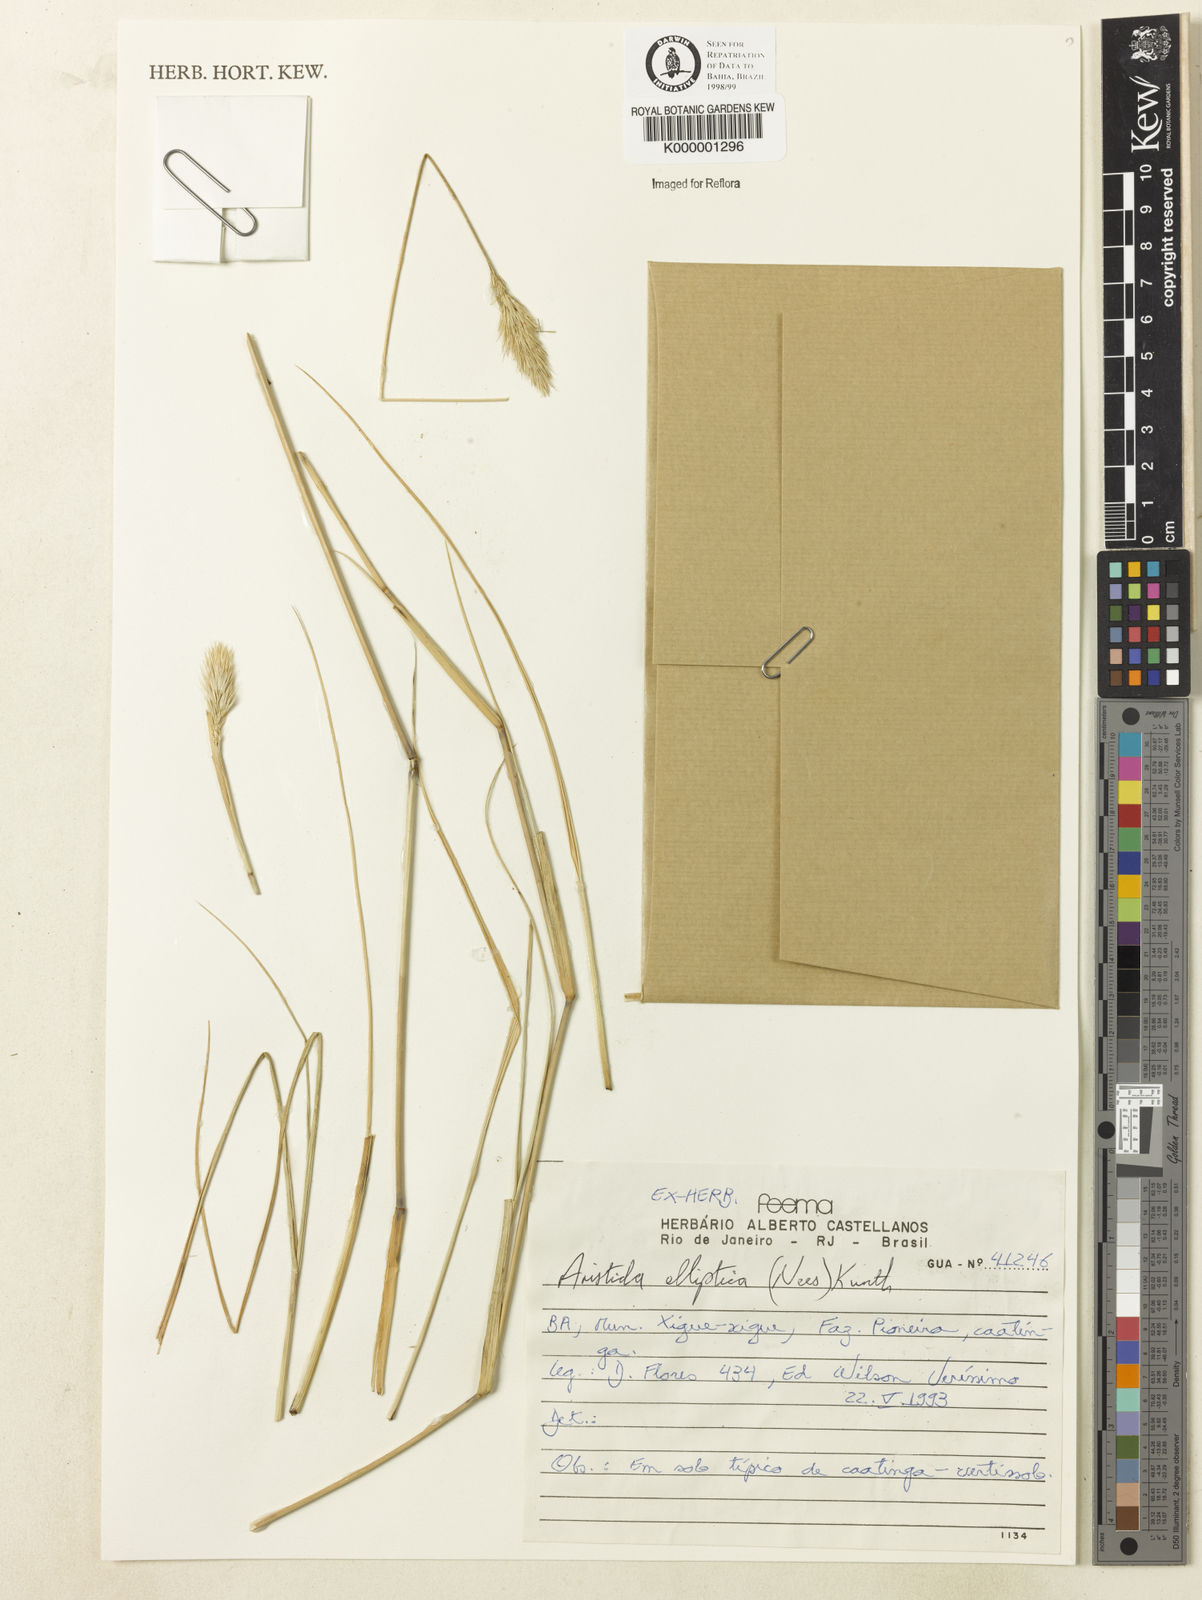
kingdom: Plantae
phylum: Tracheophyta
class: Liliopsida
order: Poales
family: Poaceae
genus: Aristida
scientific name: Aristida elliptica
